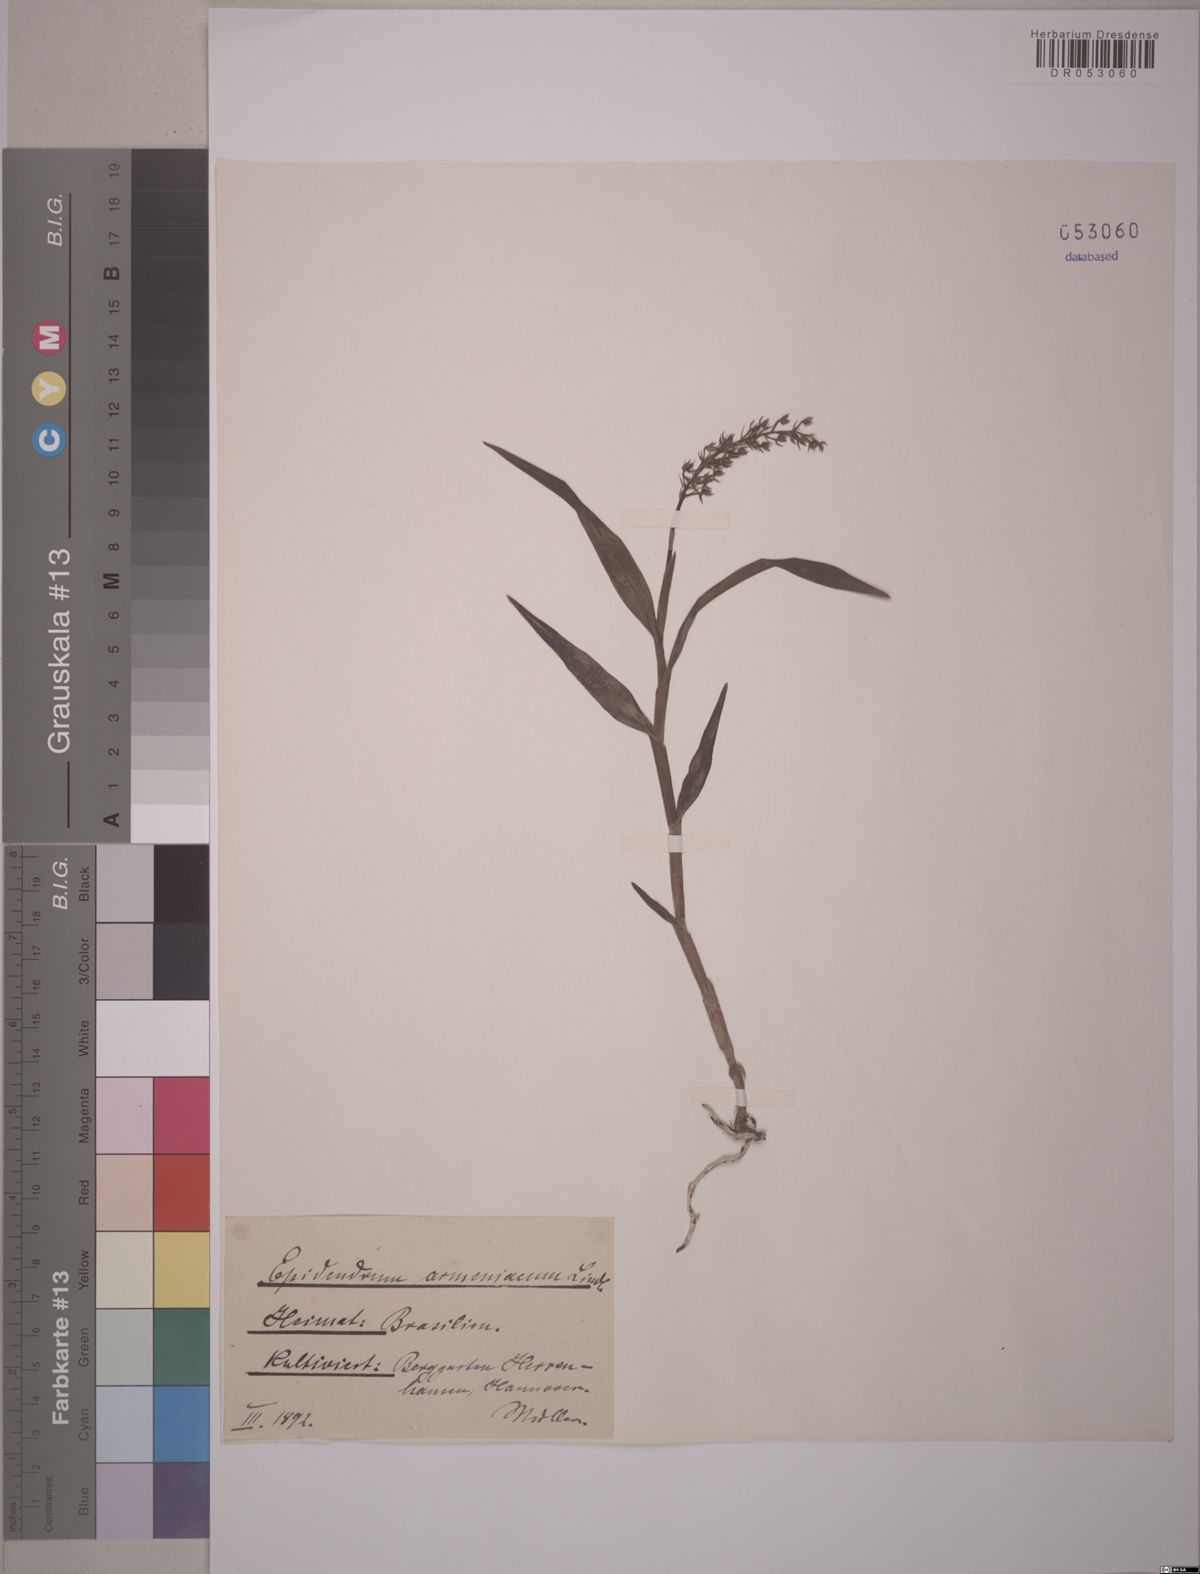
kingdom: Plantae
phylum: Tracheophyta
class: Liliopsida
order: Asparagales
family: Orchidaceae
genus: Epidendrum
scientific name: Epidendrum armeniacum
